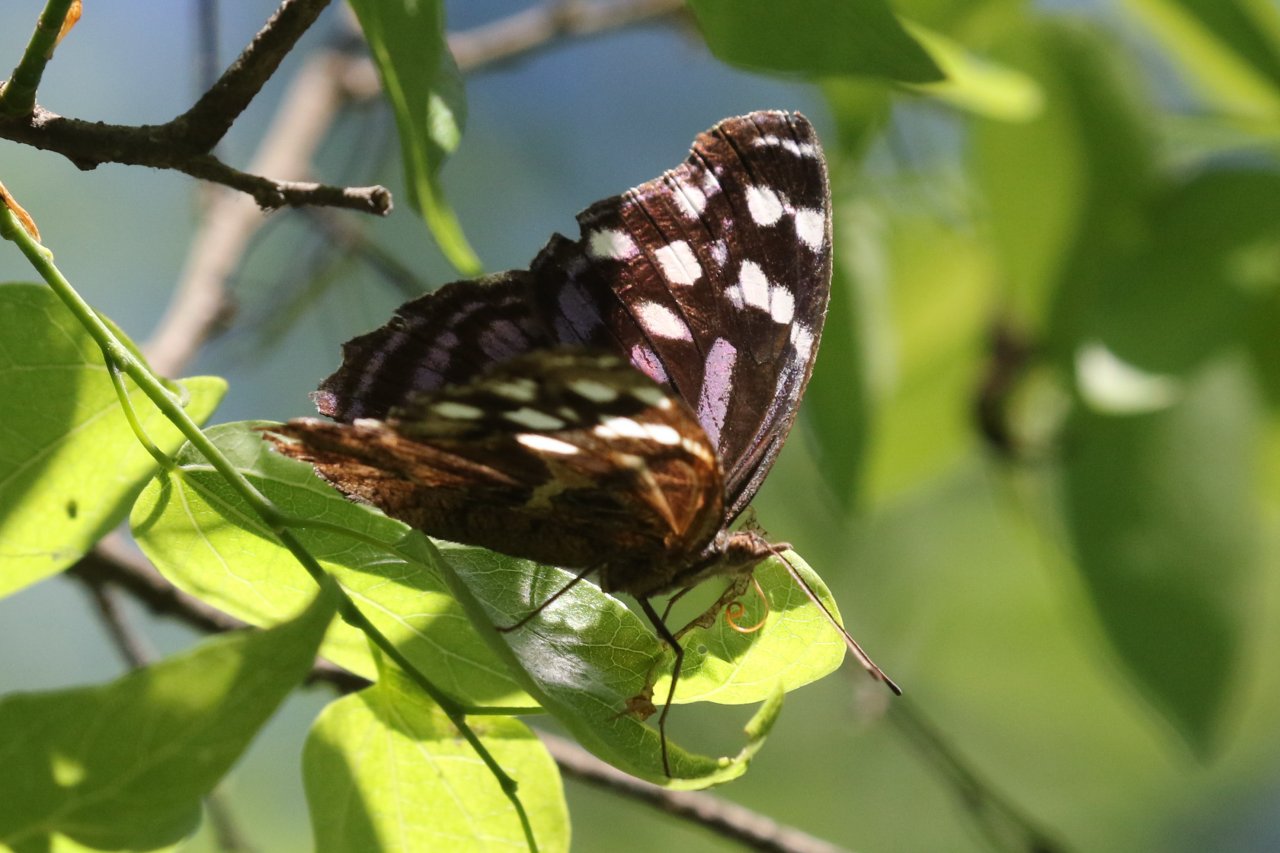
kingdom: Animalia
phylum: Arthropoda
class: Insecta
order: Lepidoptera
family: Nymphalidae
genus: Myscelia
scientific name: Myscelia ethusa
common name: Mexican Bluewing
